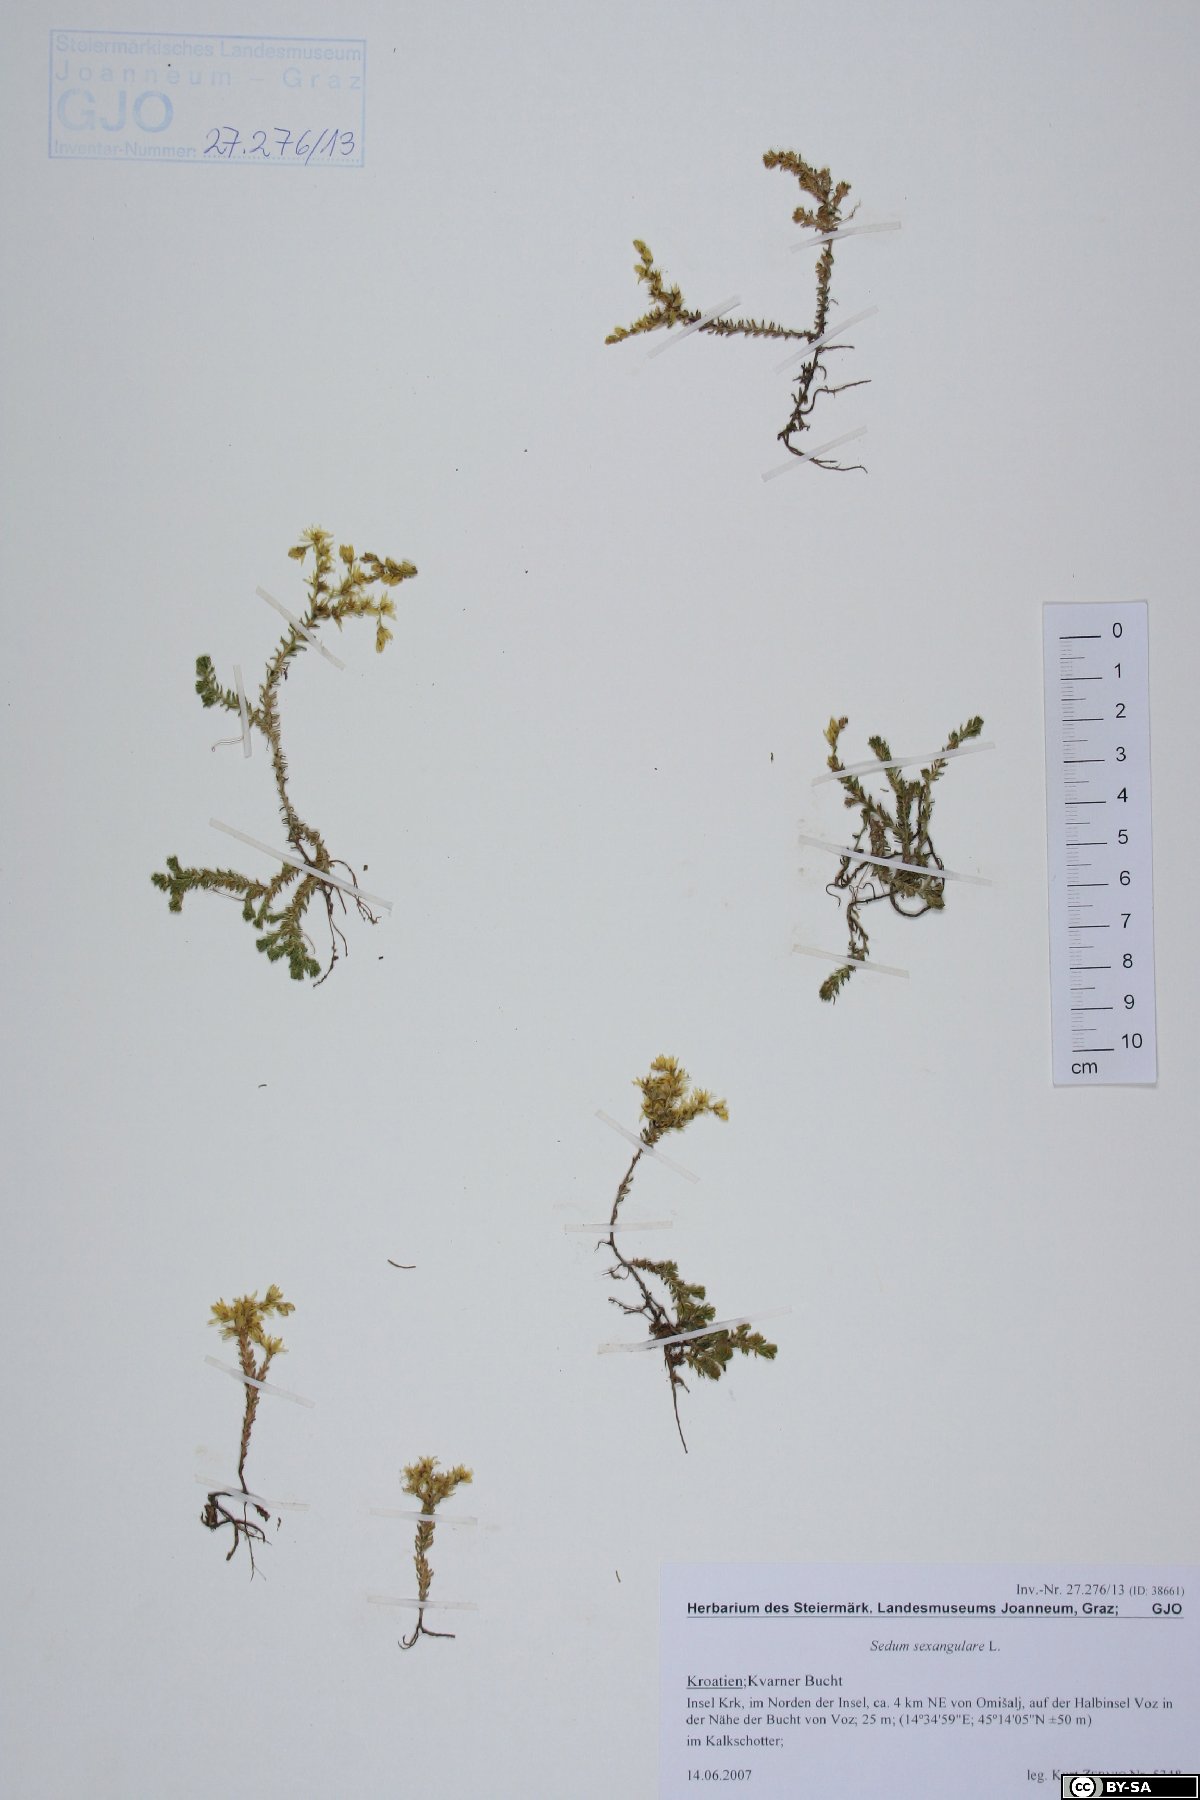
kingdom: Plantae
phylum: Tracheophyta
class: Magnoliopsida
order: Saxifragales
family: Crassulaceae
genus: Sedum
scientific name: Sedum sexangulare
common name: Tasteless stonecrop
